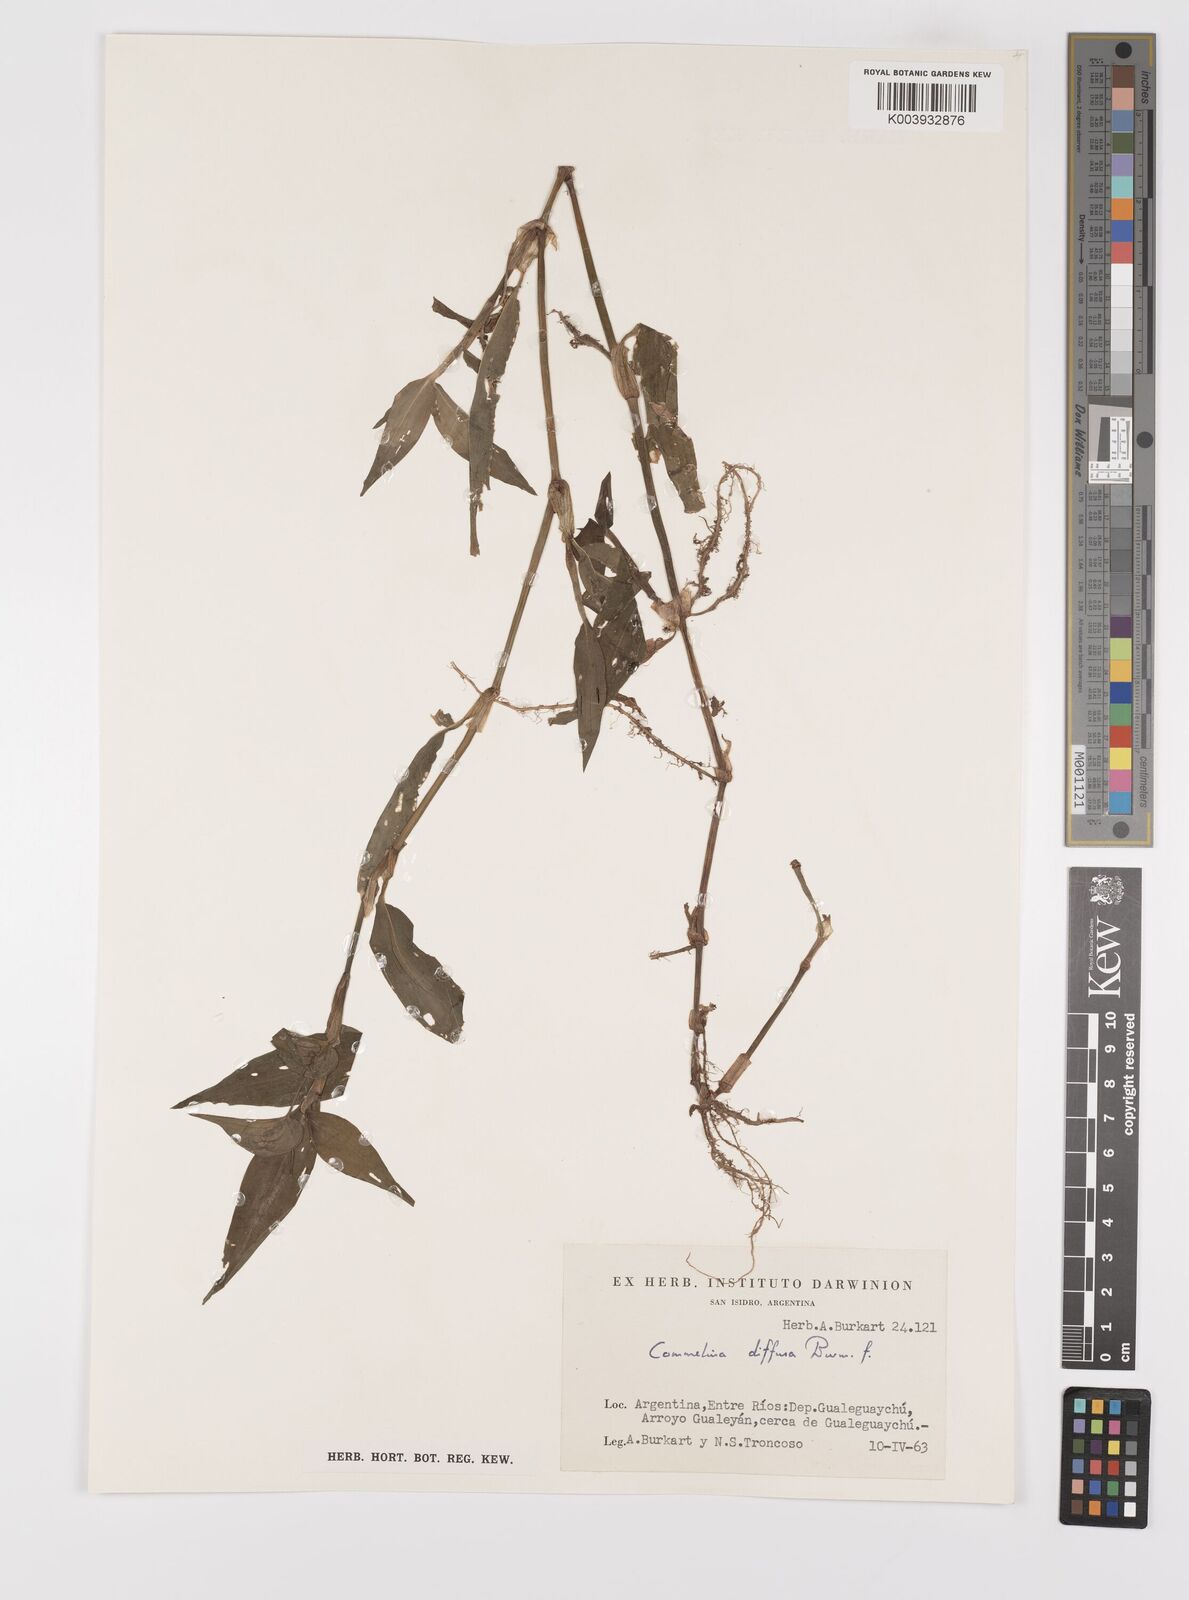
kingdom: Plantae
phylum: Tracheophyta
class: Liliopsida
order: Commelinales
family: Commelinaceae
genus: Commelina
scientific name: Commelina diffusa
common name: Climbing dayflower
